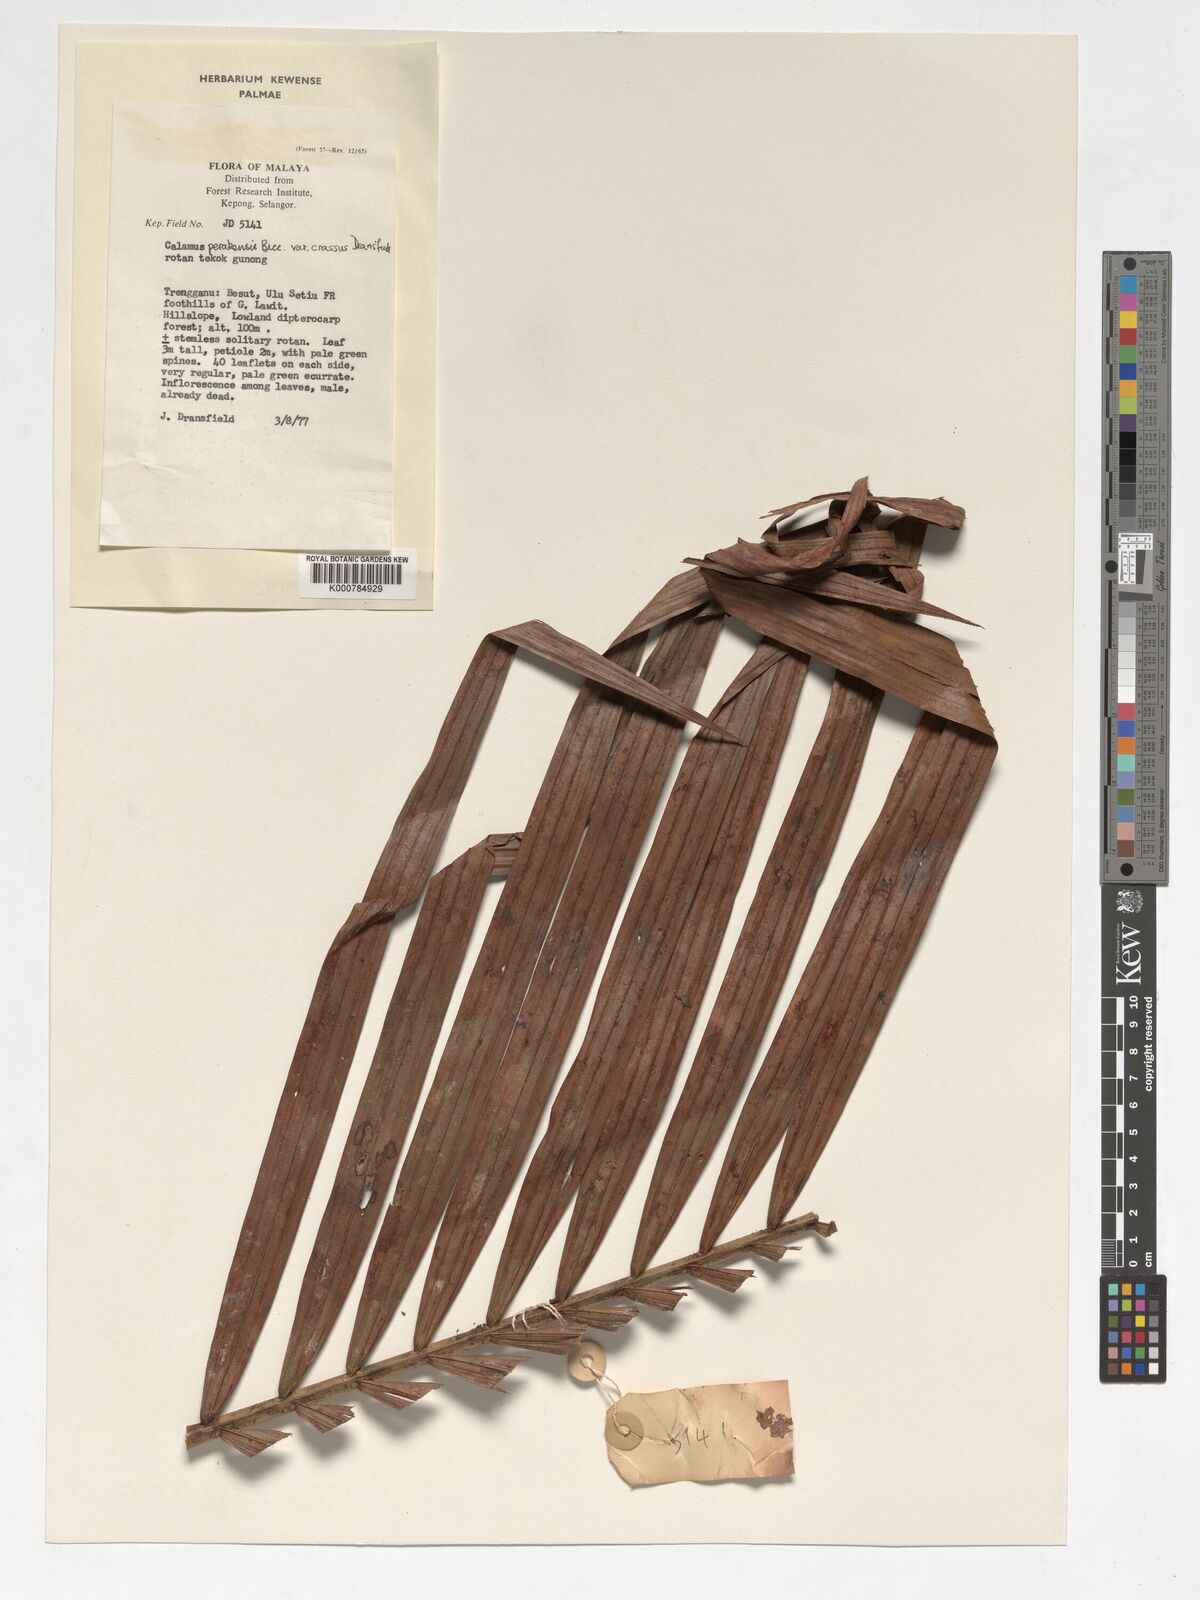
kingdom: Plantae
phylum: Tracheophyta
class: Liliopsida
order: Arecales
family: Arecaceae
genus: Calamus
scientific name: Calamus perakensis
